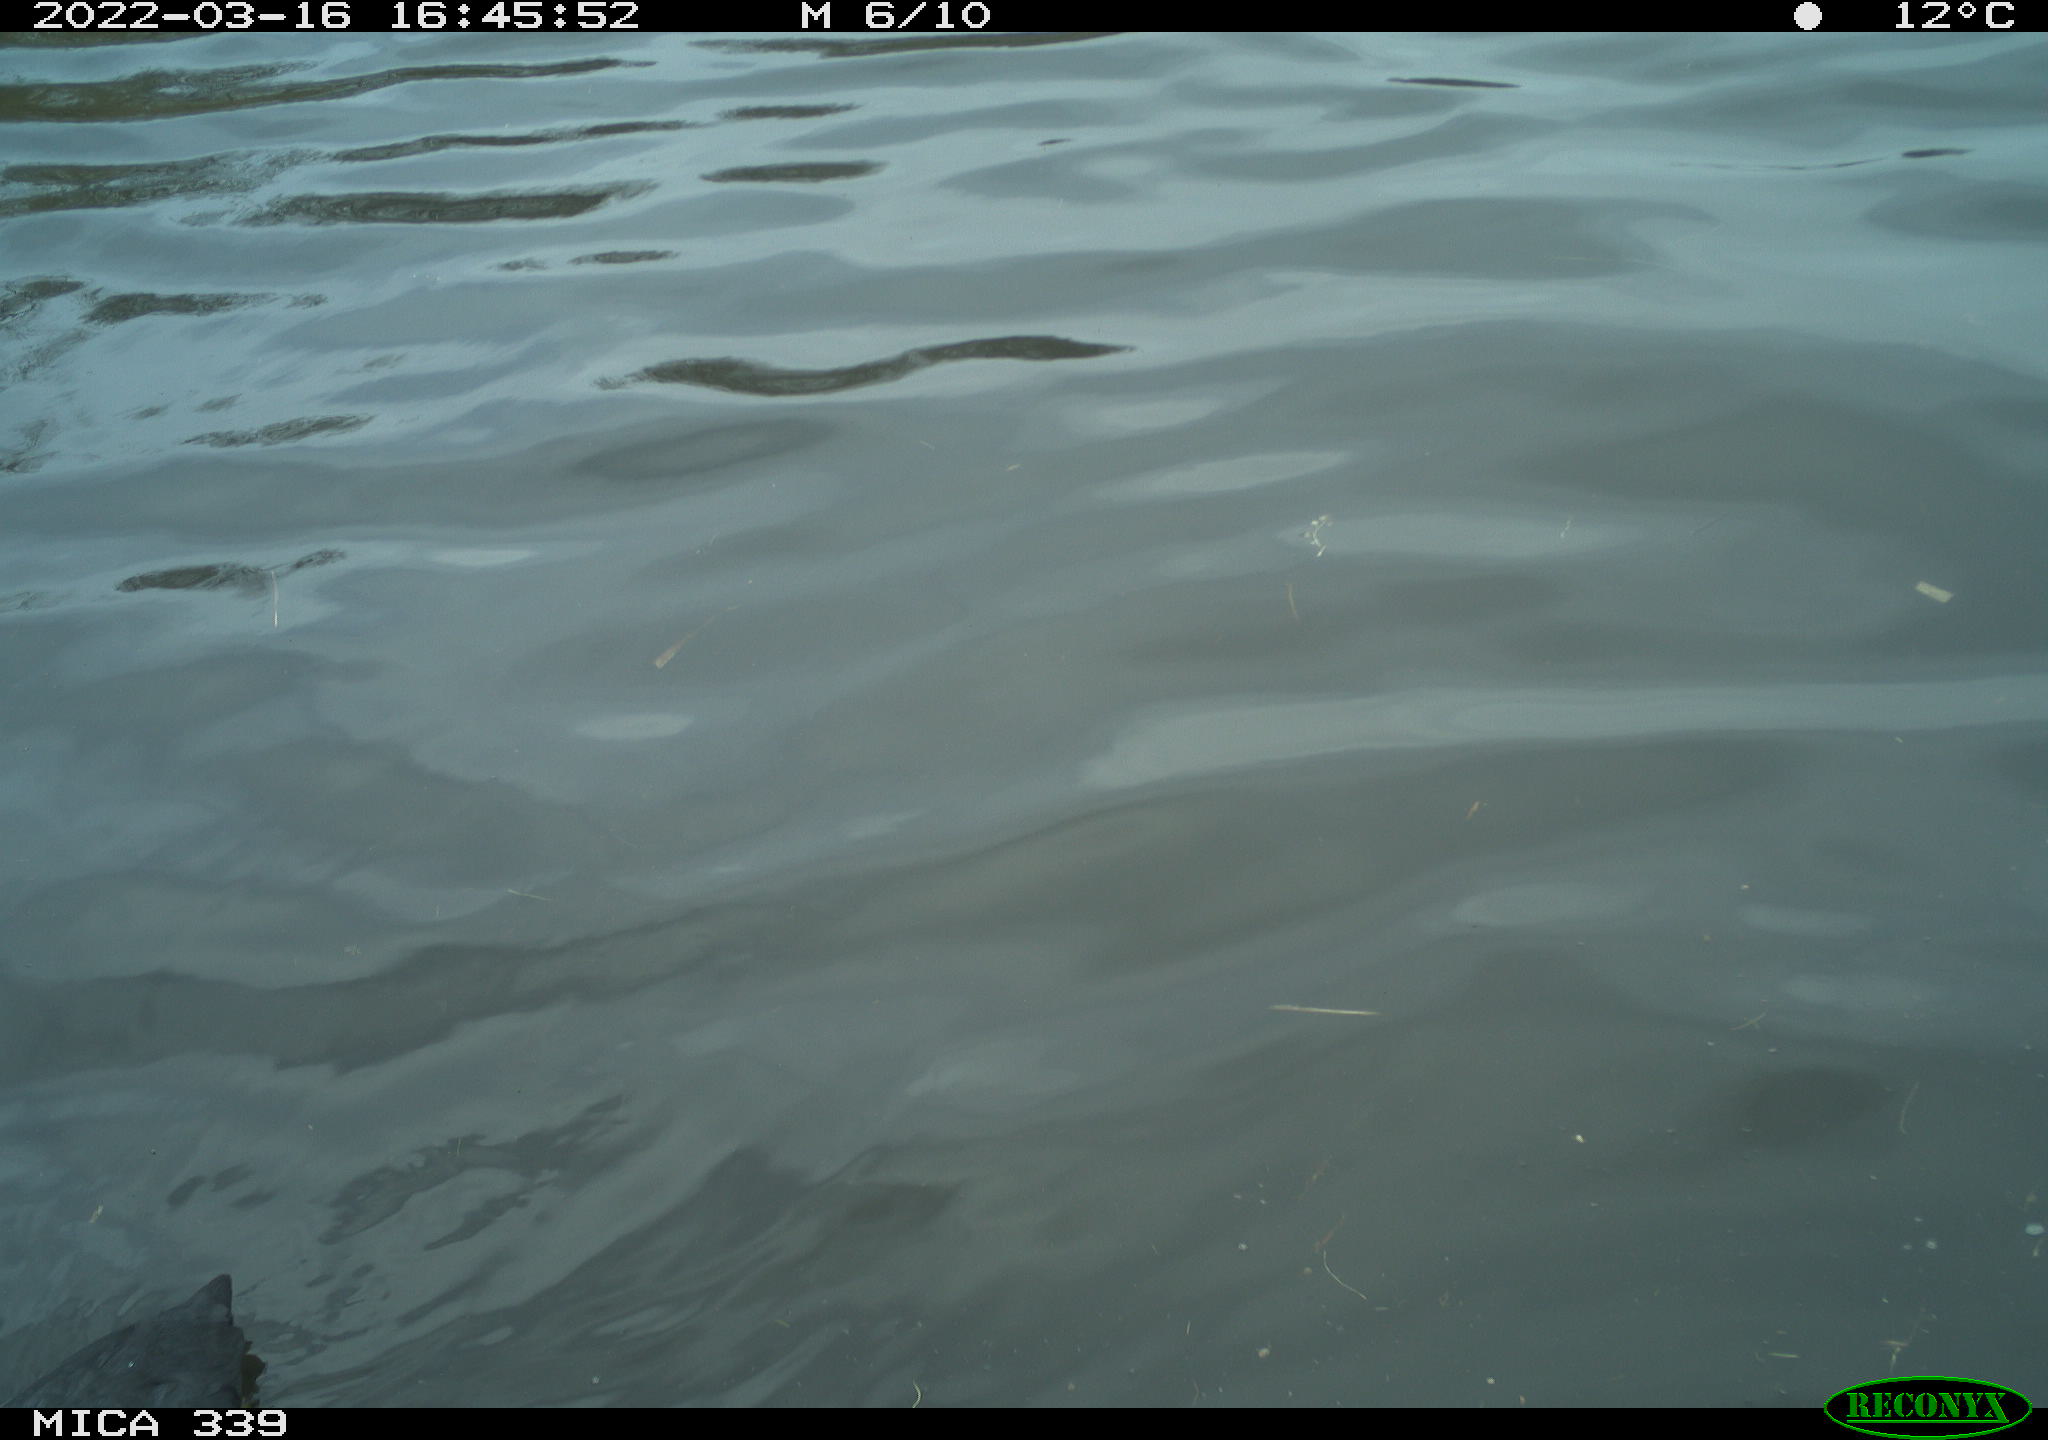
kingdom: Animalia
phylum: Chordata
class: Aves
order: Gruiformes
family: Rallidae
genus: Fulica
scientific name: Fulica atra
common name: Eurasian coot
